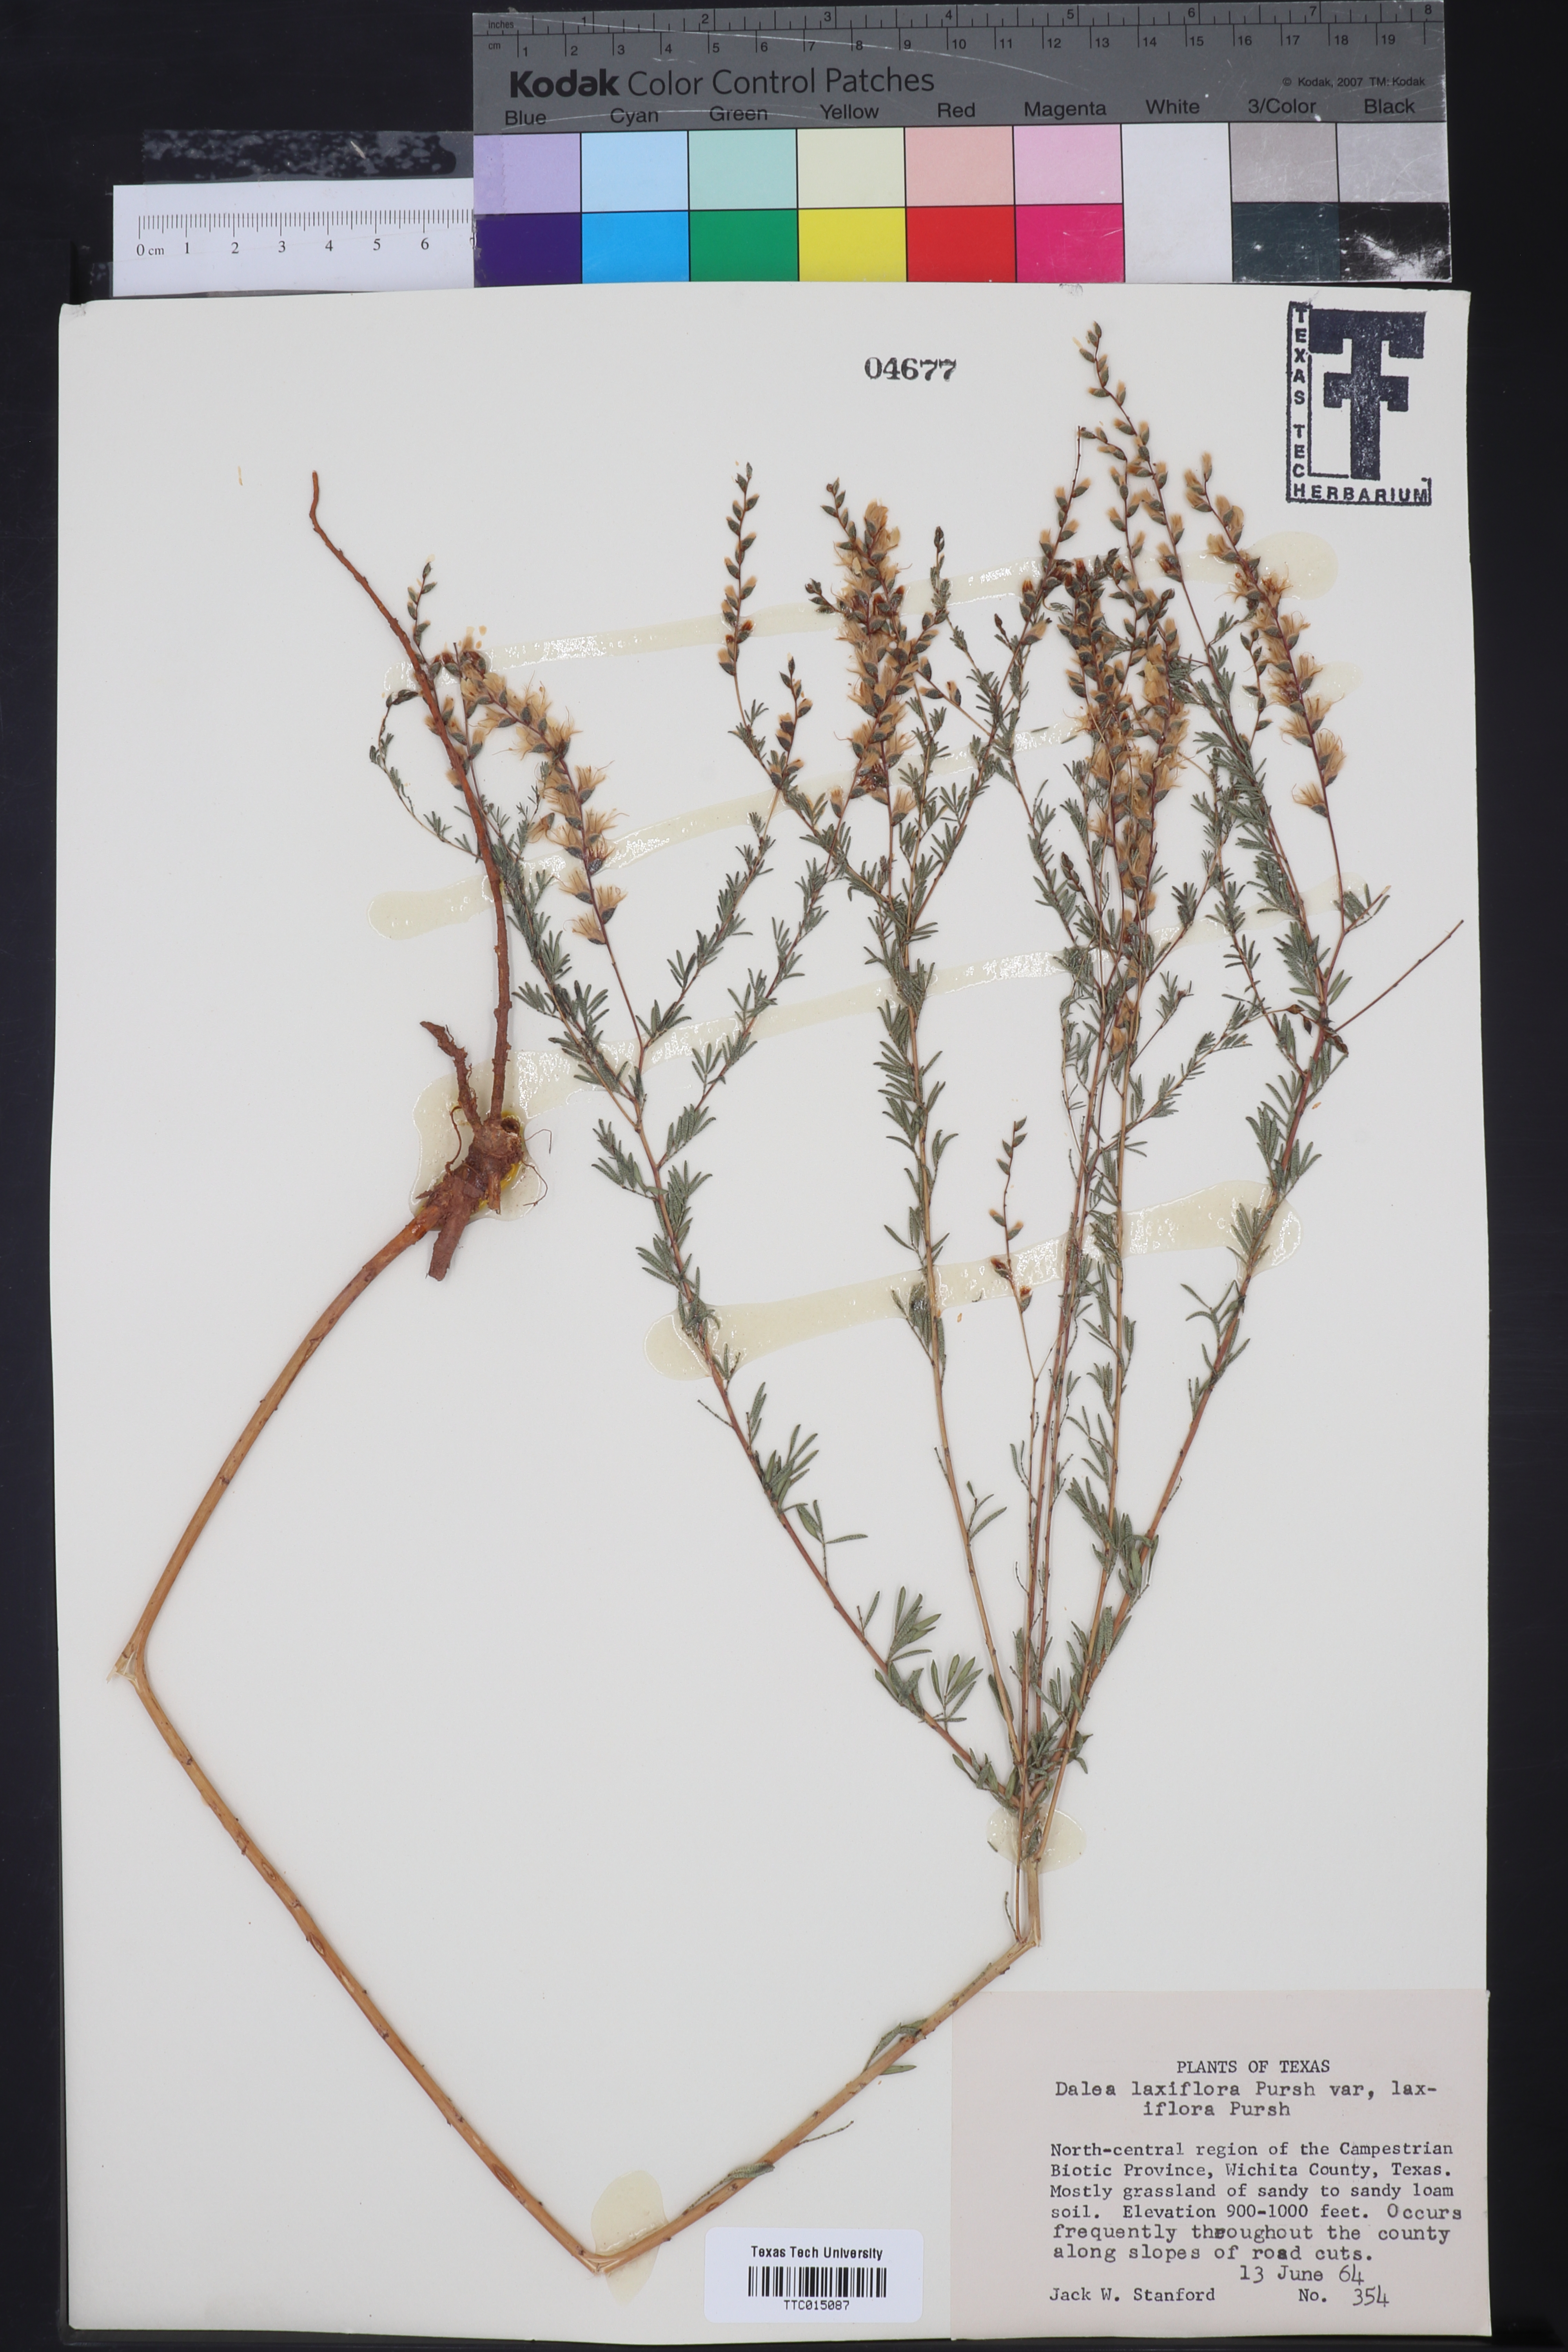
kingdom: Plantae
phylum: Tracheophyta
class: Magnoliopsida
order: Fabales
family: Fabaceae
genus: Dalea
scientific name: Dalea hegewischiana
